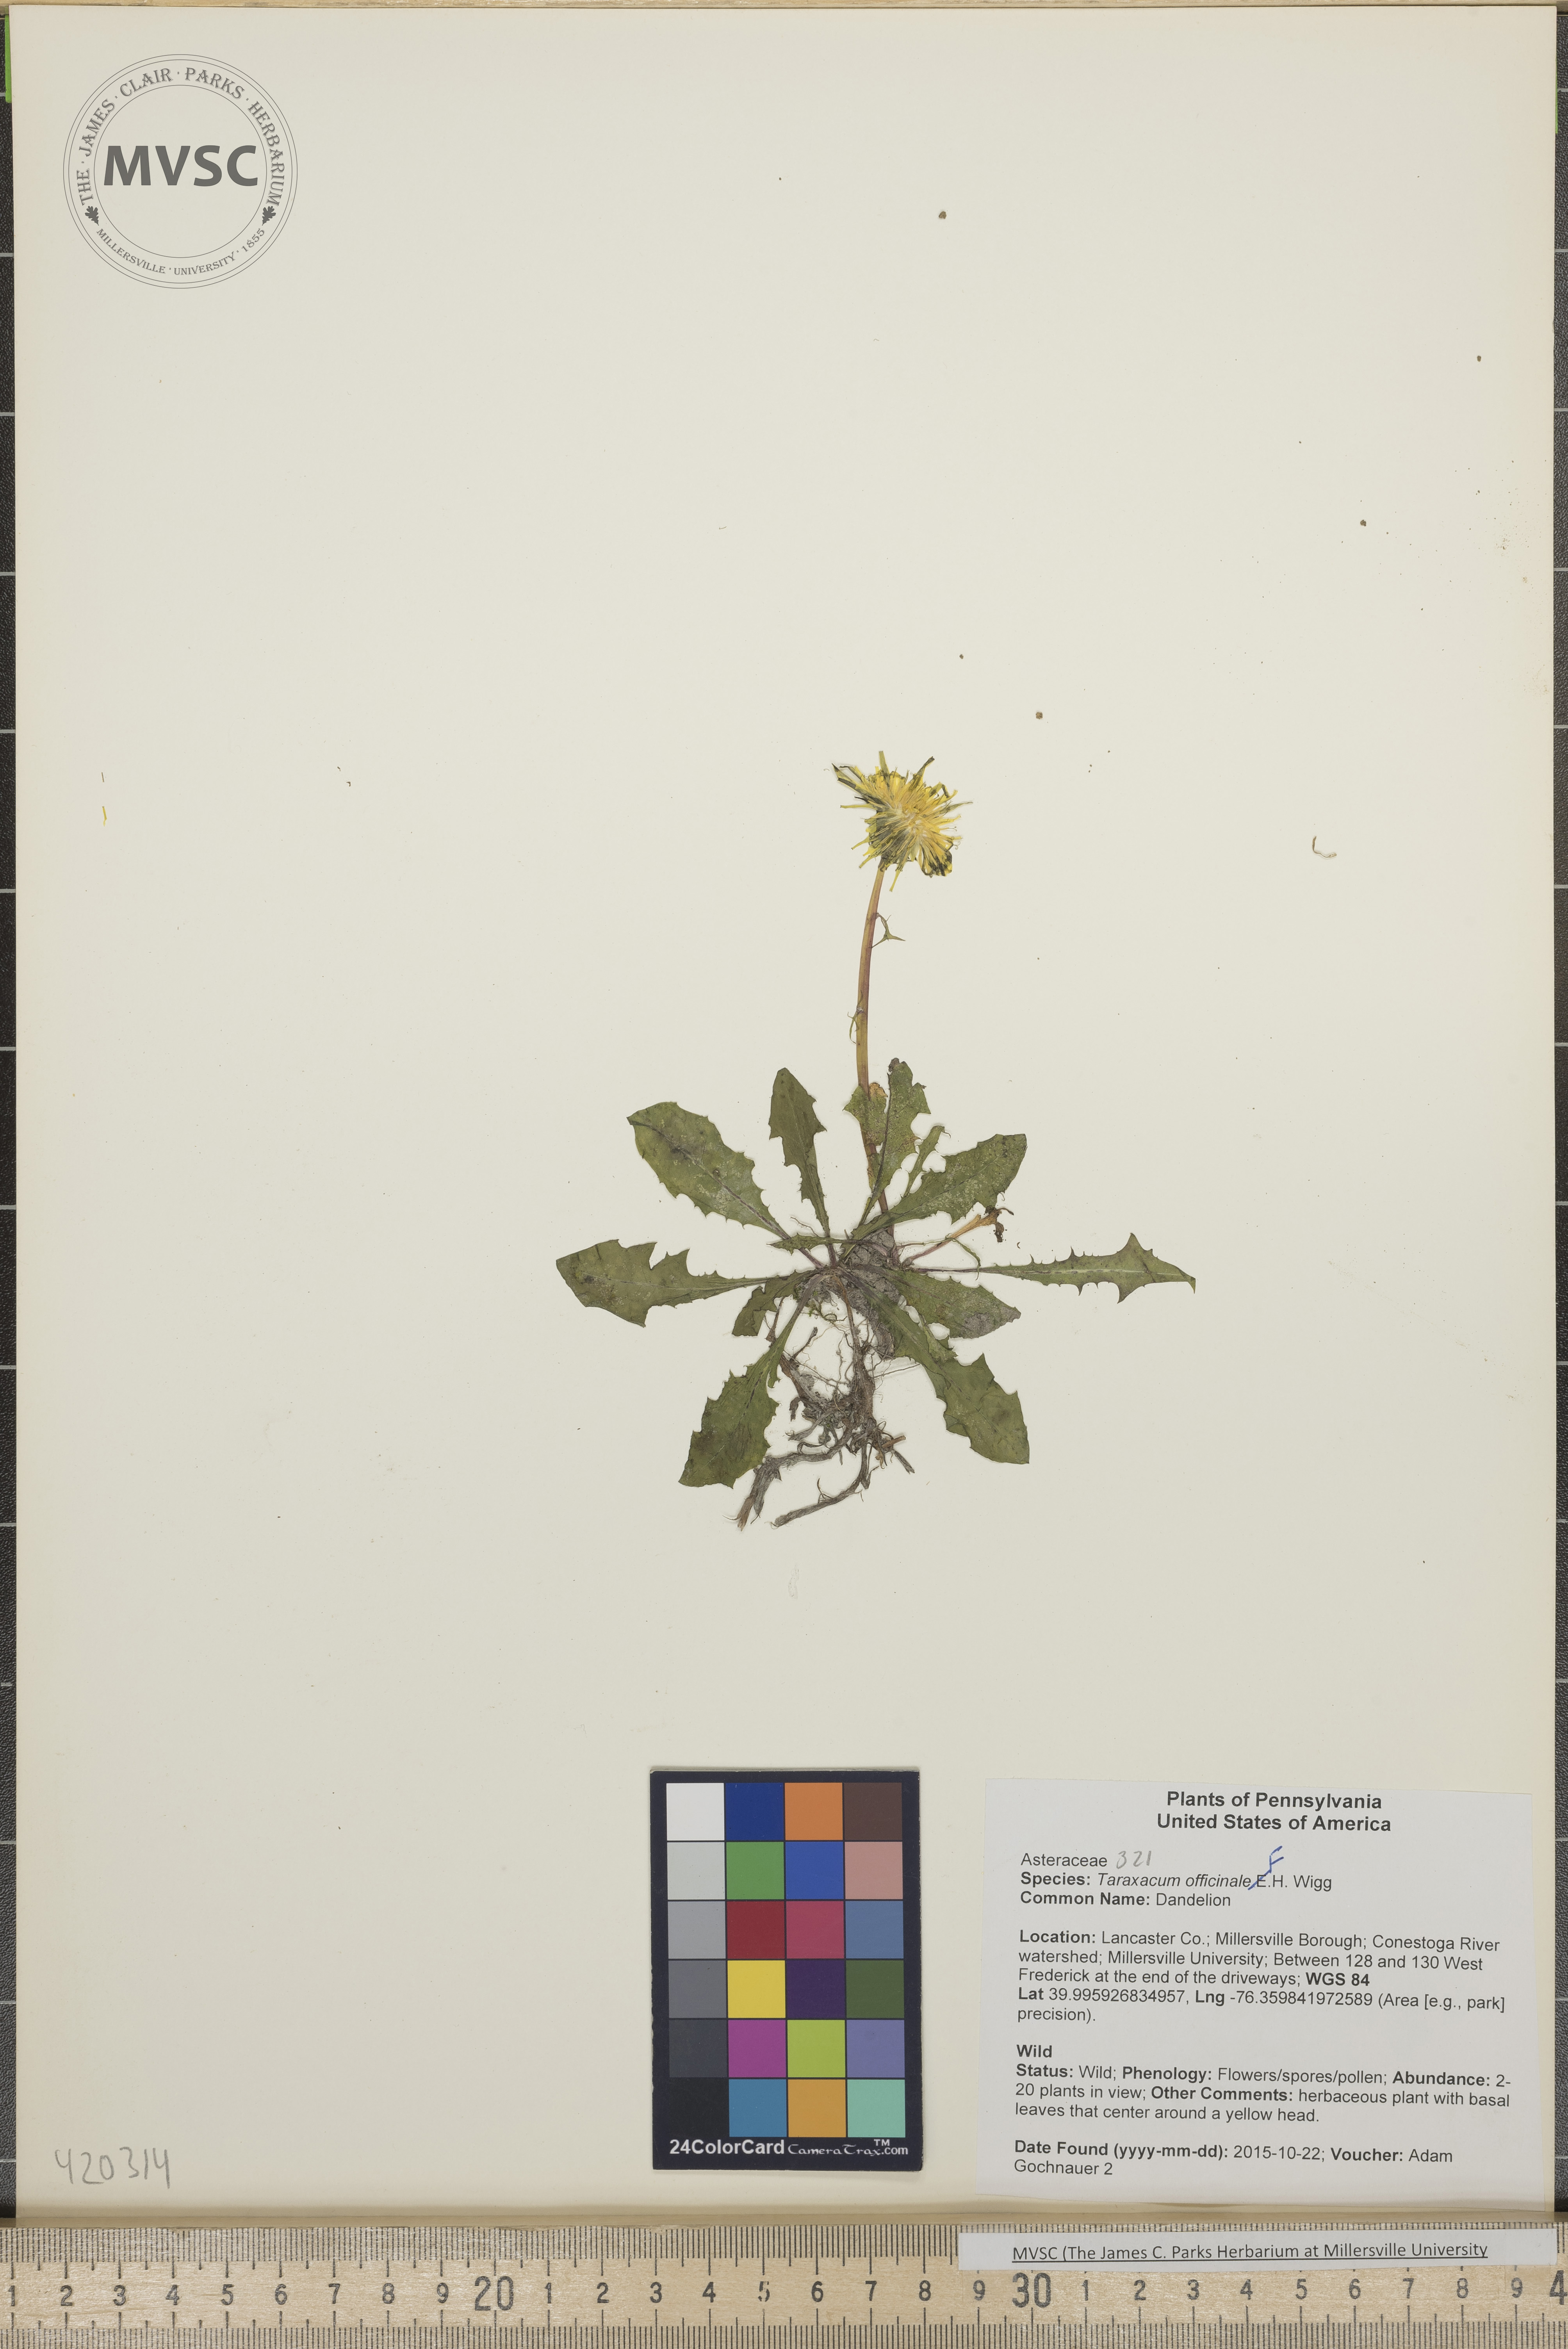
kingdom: Plantae
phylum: Tracheophyta
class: Magnoliopsida
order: Asterales
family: Asteraceae
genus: Taraxacum
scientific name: Taraxacum officinale
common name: Dandelion
